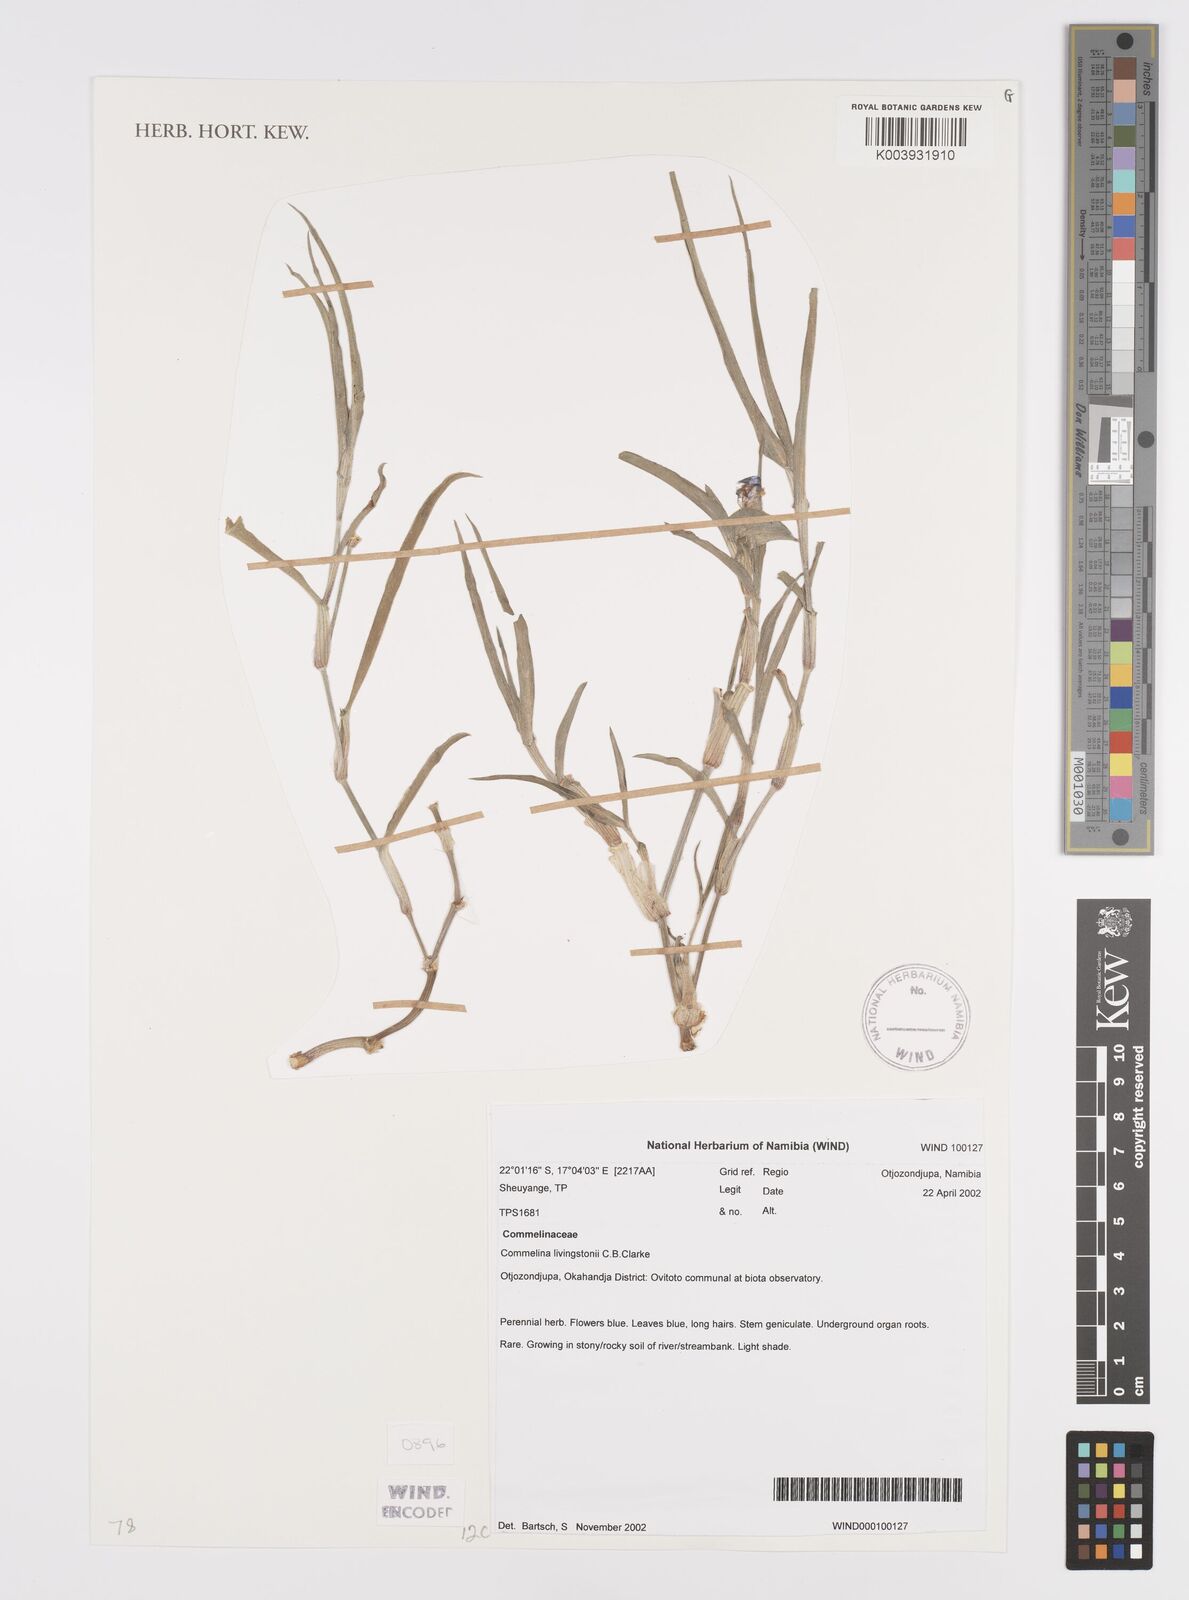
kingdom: Plantae
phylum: Tracheophyta
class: Liliopsida
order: Commelinales
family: Commelinaceae
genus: Commelina
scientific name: Commelina erecta
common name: Blousel blommetjie
